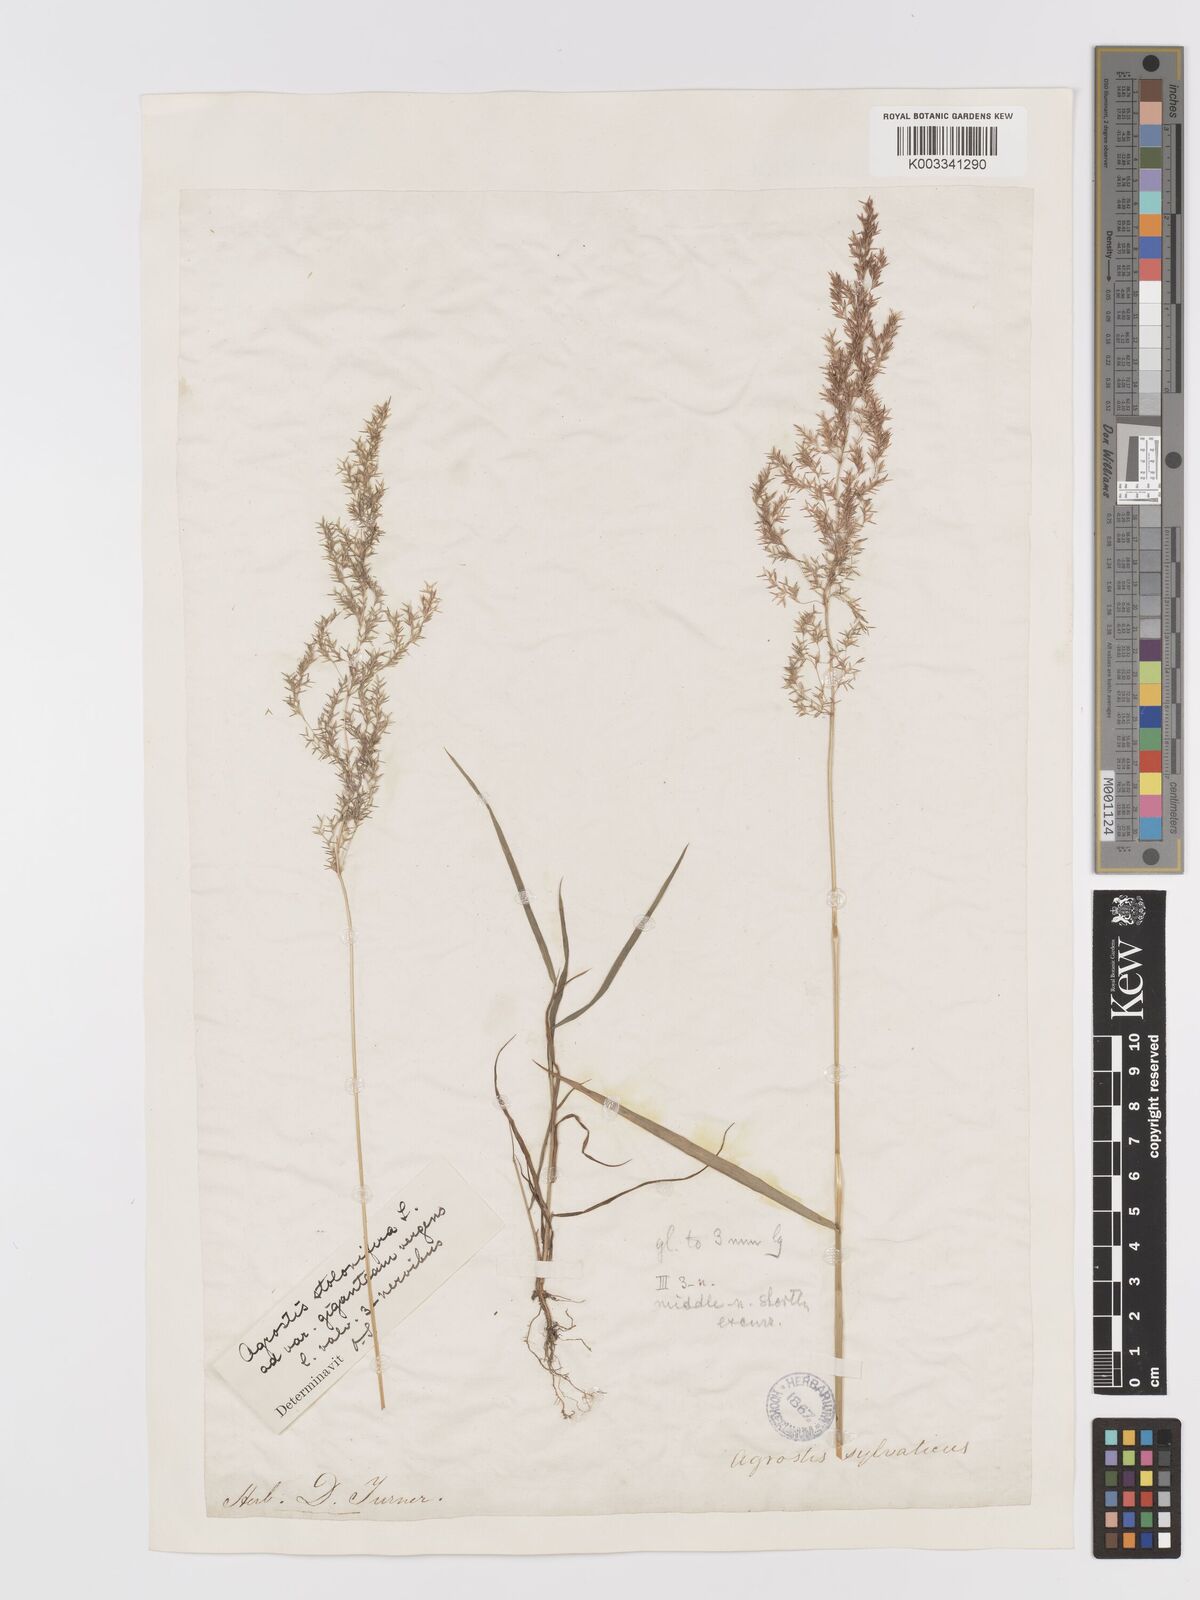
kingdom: Plantae
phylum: Tracheophyta
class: Liliopsida
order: Poales
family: Poaceae
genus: Agrostis
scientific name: Agrostis gigantea
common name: Black bent
